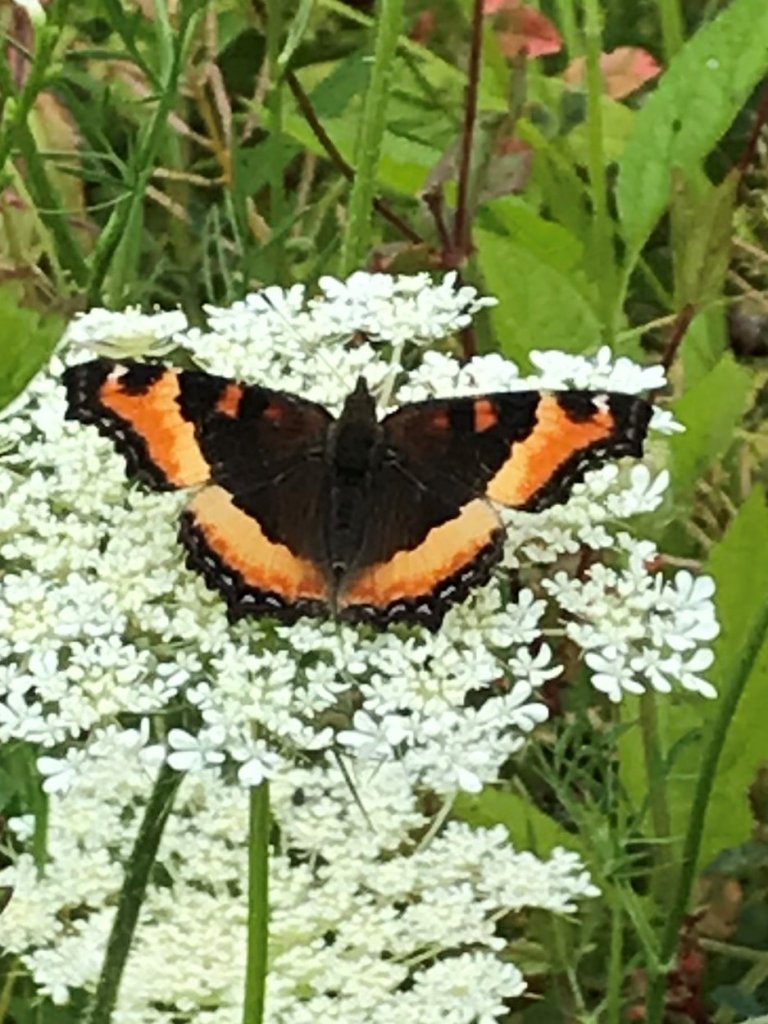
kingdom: Animalia
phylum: Arthropoda
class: Insecta
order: Lepidoptera
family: Nymphalidae
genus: Aglais
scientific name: Aglais
